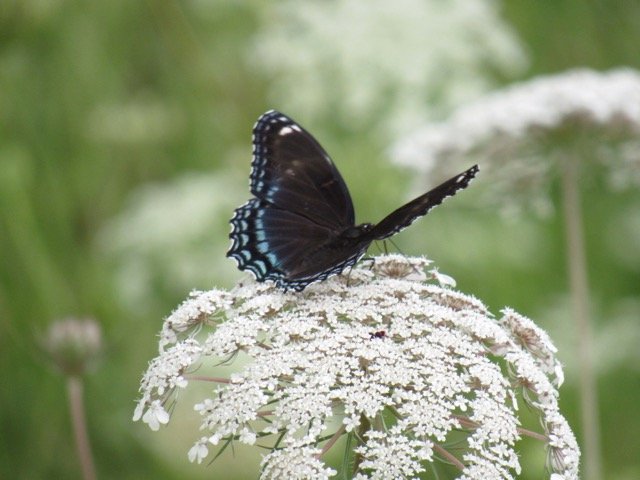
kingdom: Animalia
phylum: Arthropoda
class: Insecta
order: Lepidoptera
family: Nymphalidae
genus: Limenitis
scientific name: Limenitis
